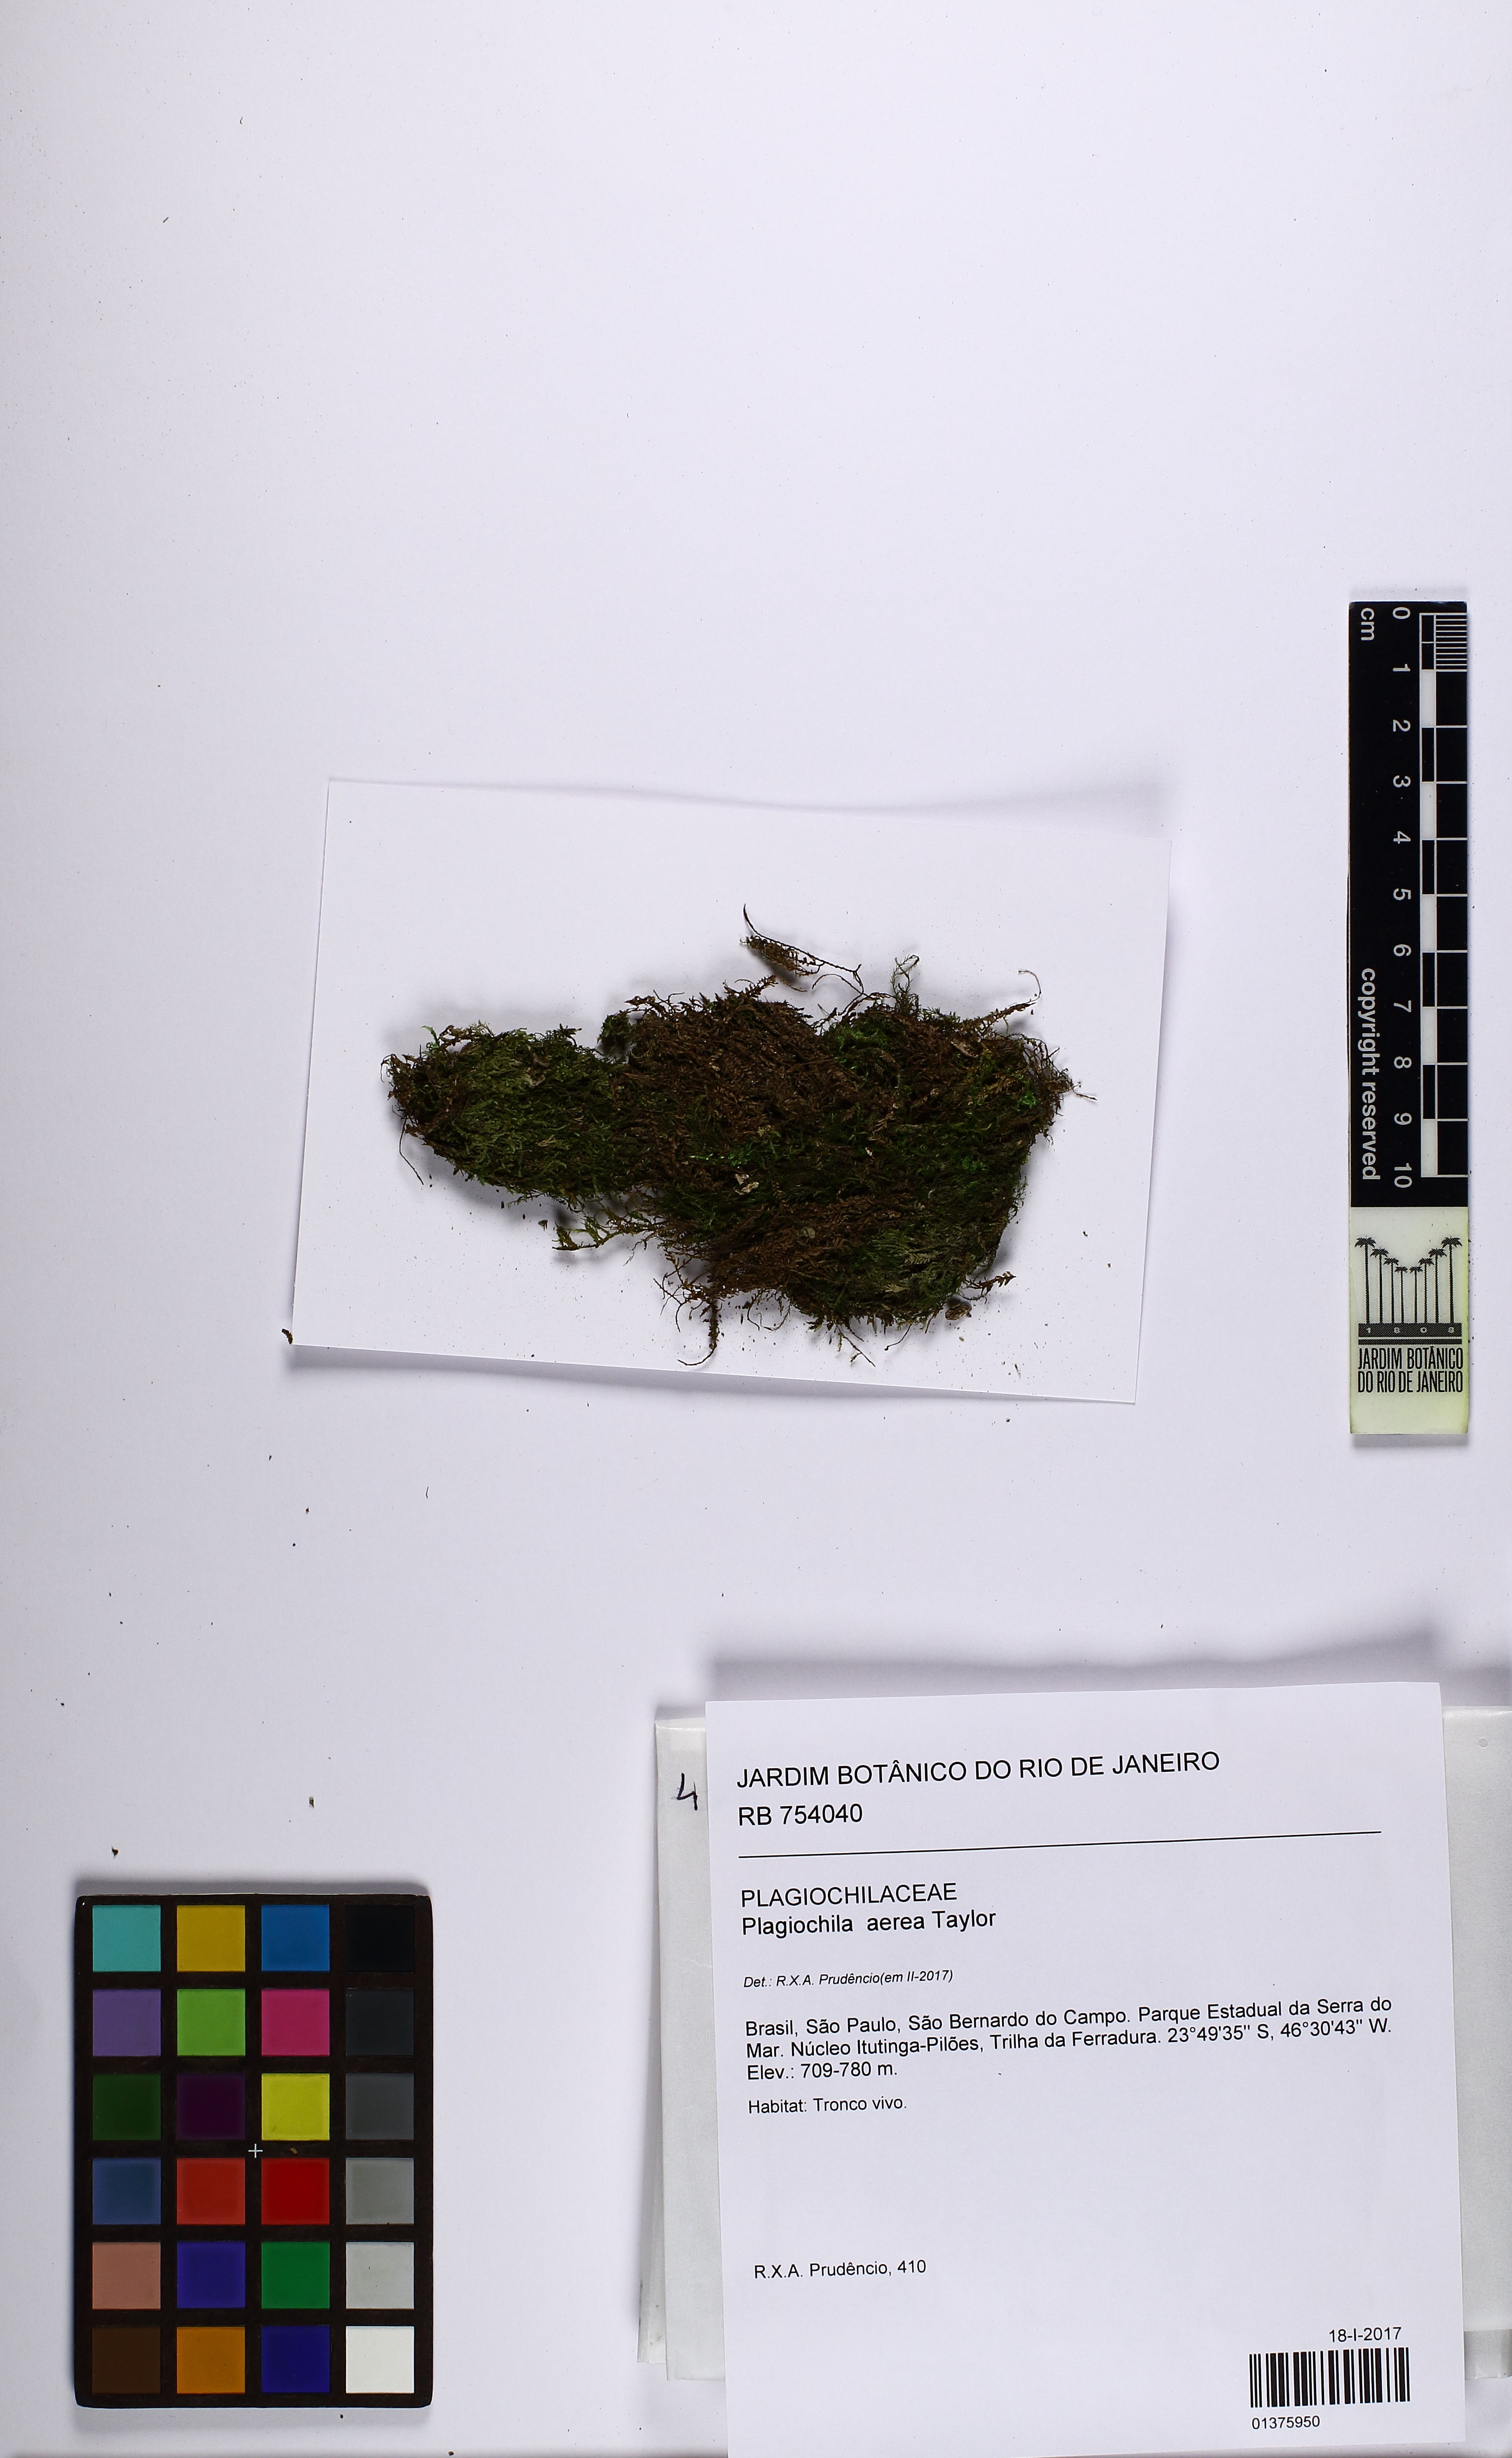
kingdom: Plantae
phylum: Marchantiophyta
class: Jungermanniopsida
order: Jungermanniales
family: Plagiochilaceae
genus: Plagiochila
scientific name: Plagiochila aerea
